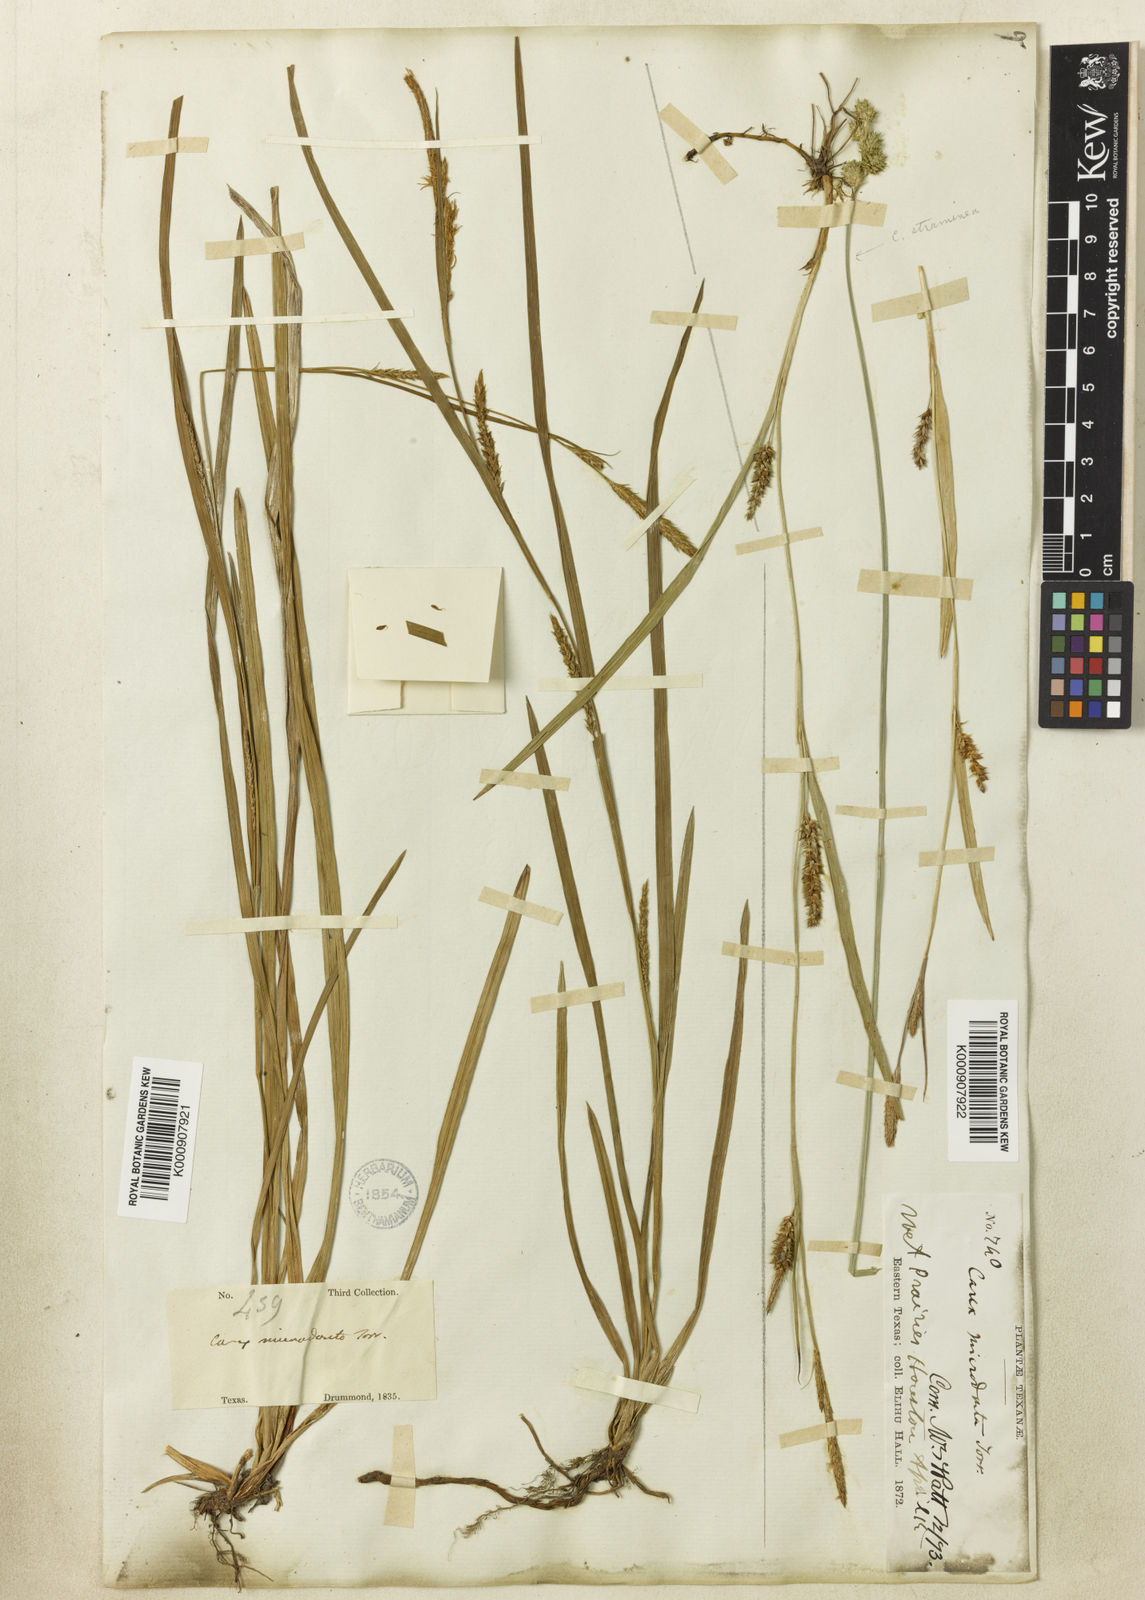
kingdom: Plantae
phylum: Tracheophyta
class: Liliopsida
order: Poales
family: Cyperaceae
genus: Carex
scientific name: Carex microdonta
